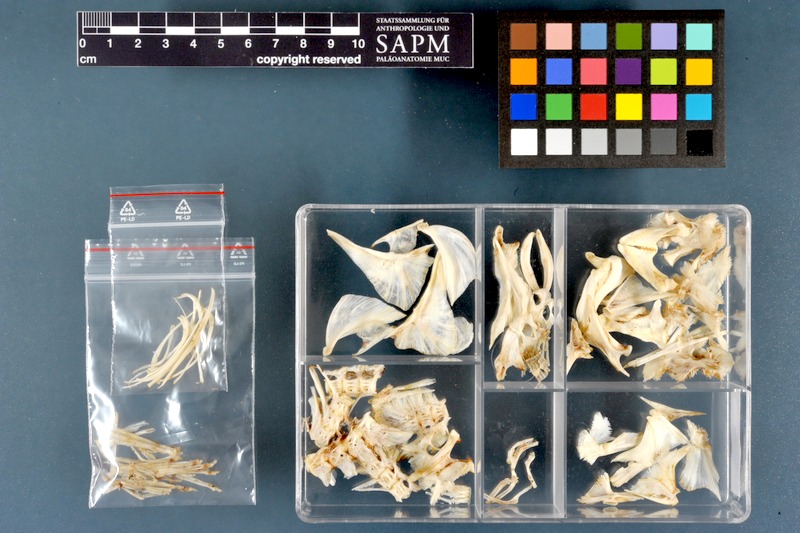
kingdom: Animalia
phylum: Chordata
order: Tetraodontiformes
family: Tetraodontidae
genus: Tetraodon
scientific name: Tetraodon lineatus
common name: Coral butterfly
